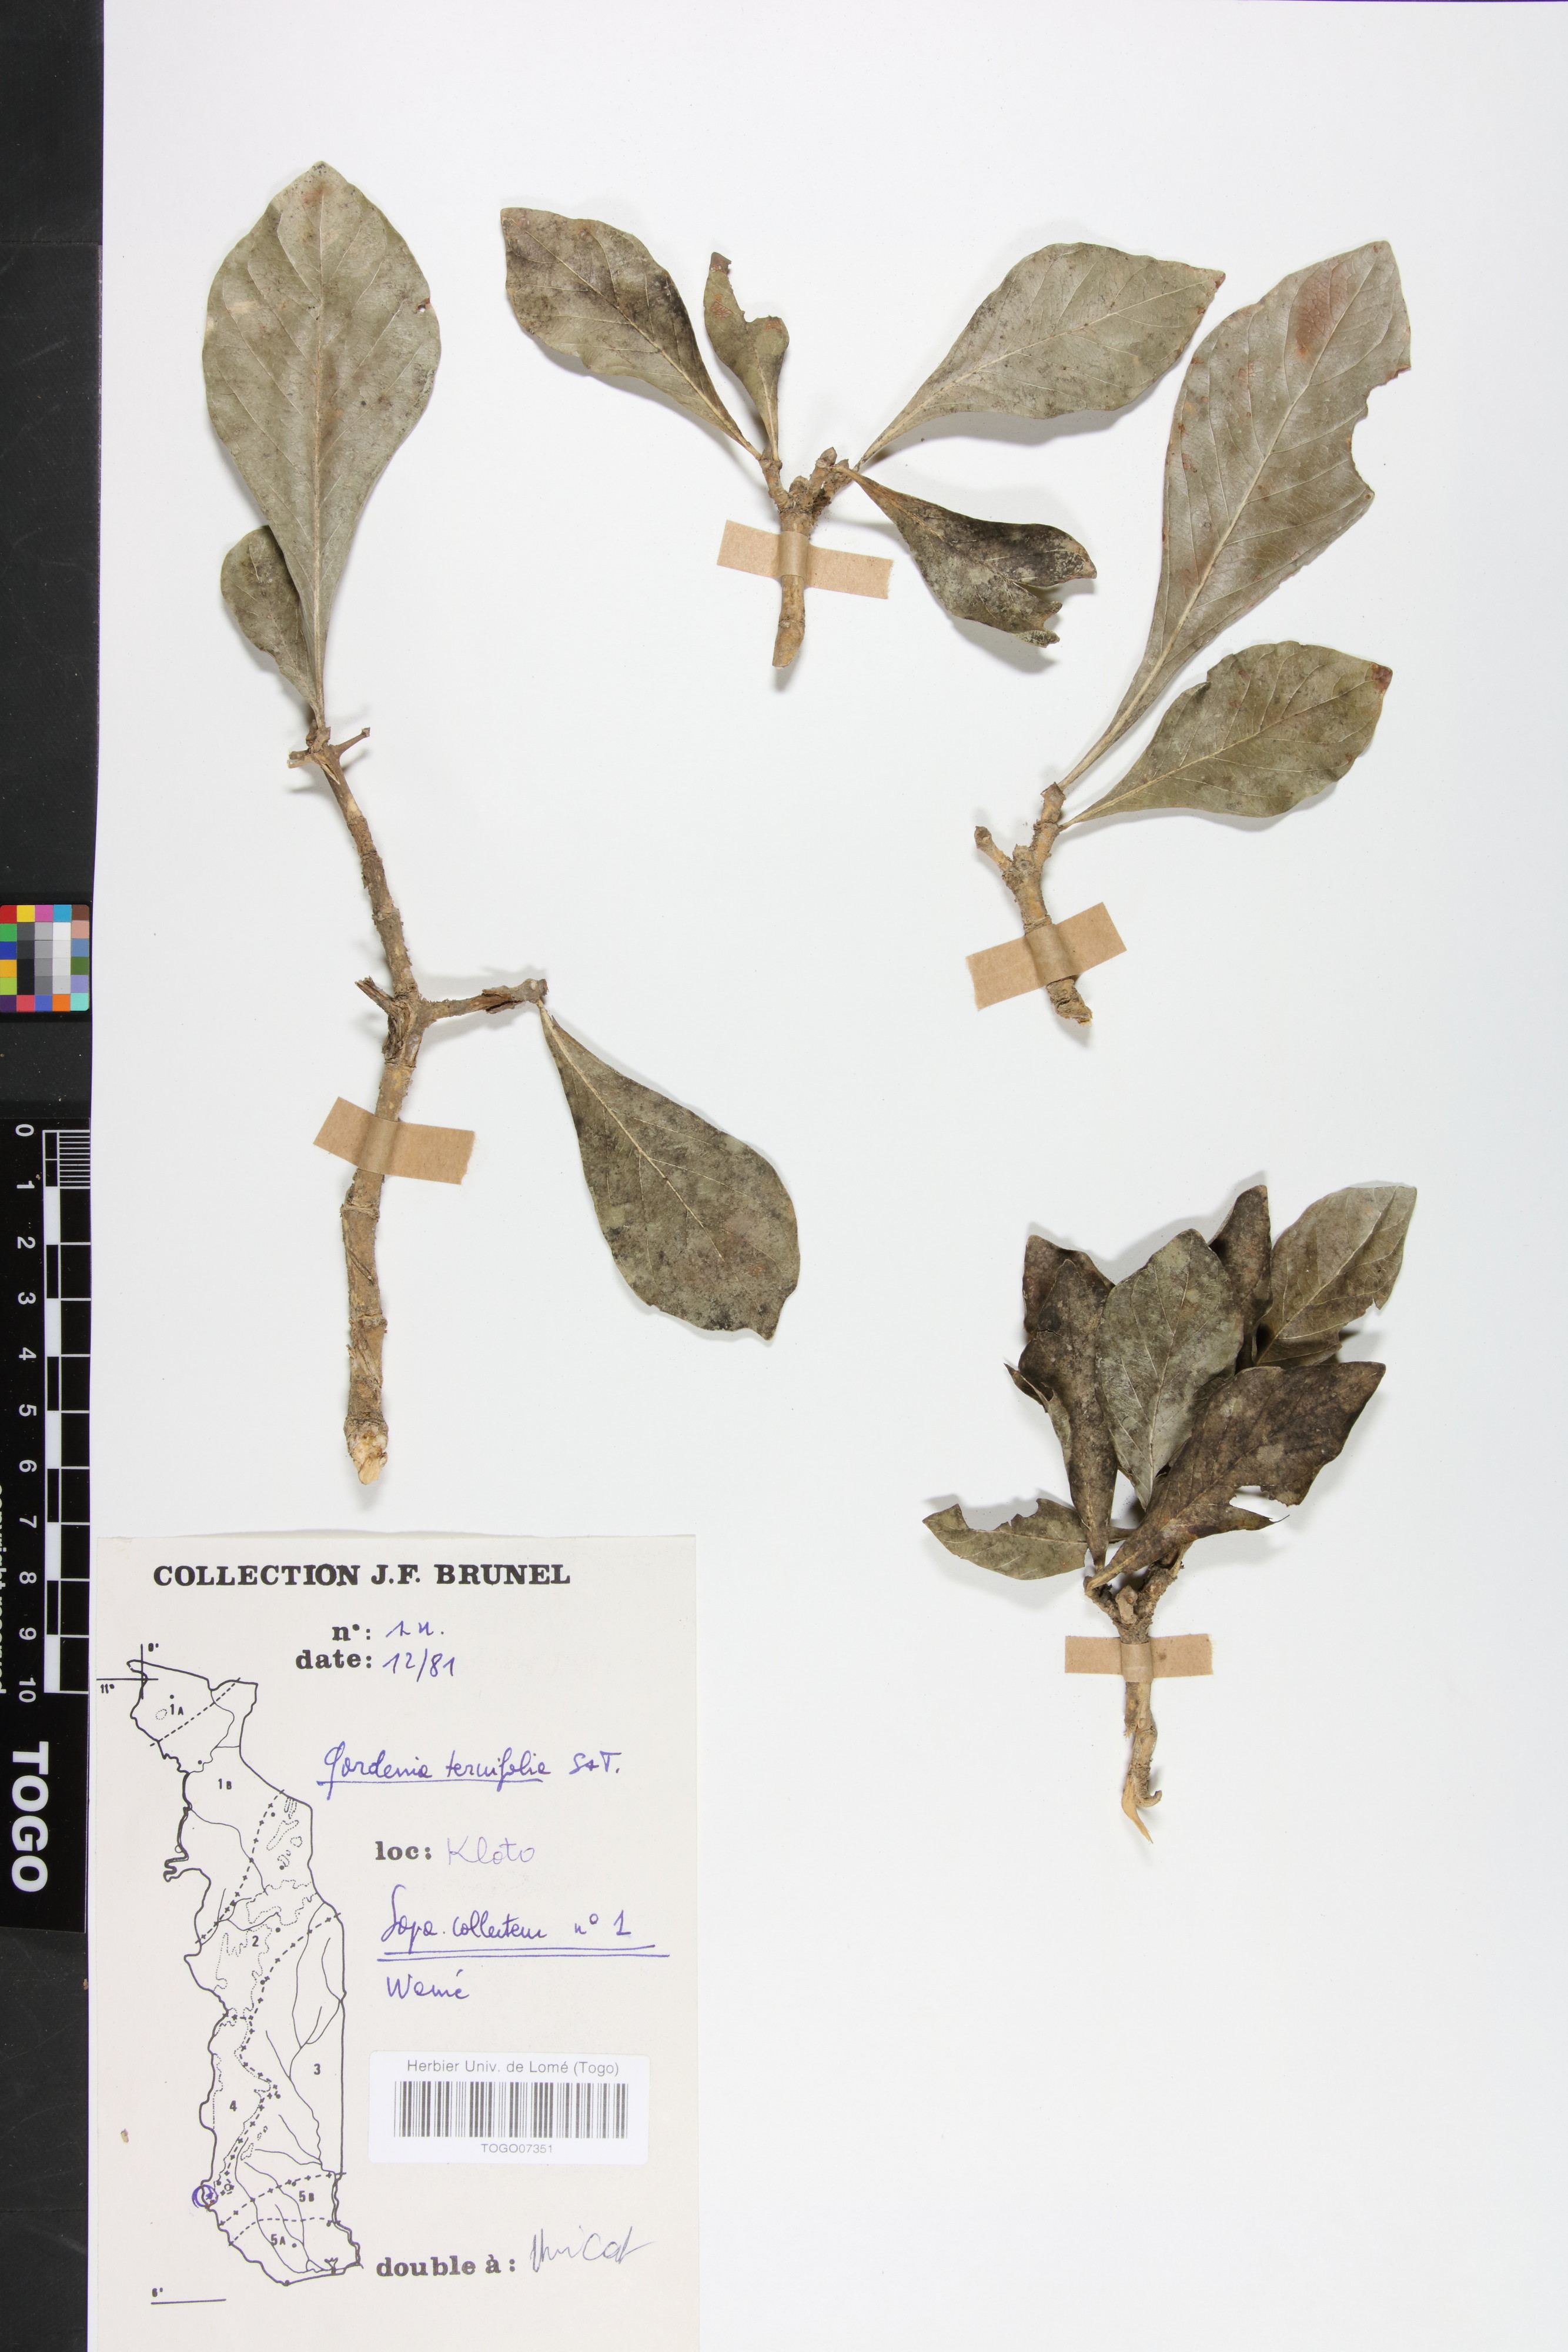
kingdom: Plantae
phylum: Tracheophyta
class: Magnoliopsida
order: Gentianales
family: Rubiaceae
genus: Gardenia
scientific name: Gardenia ternifolia
